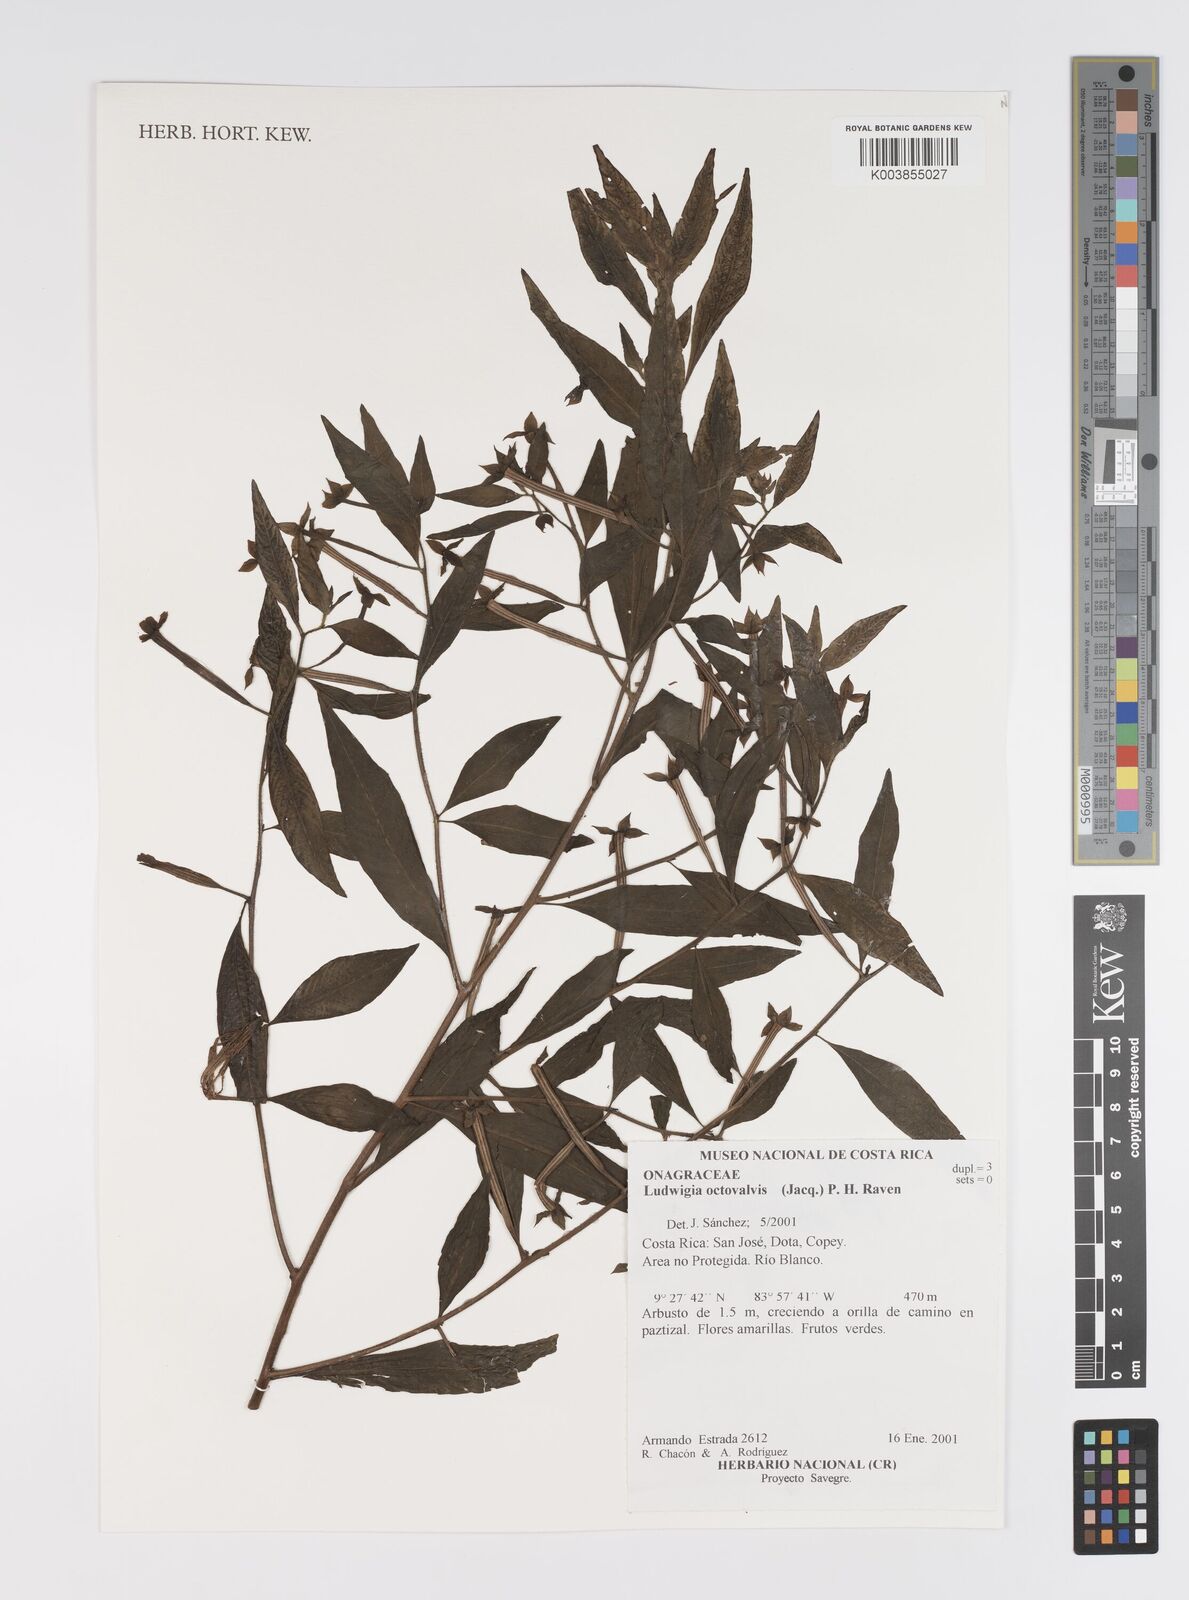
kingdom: Plantae
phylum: Tracheophyta
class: Magnoliopsida
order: Myrtales
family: Onagraceae
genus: Ludwigia
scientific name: Ludwigia octovalvis
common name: Water-primrose
